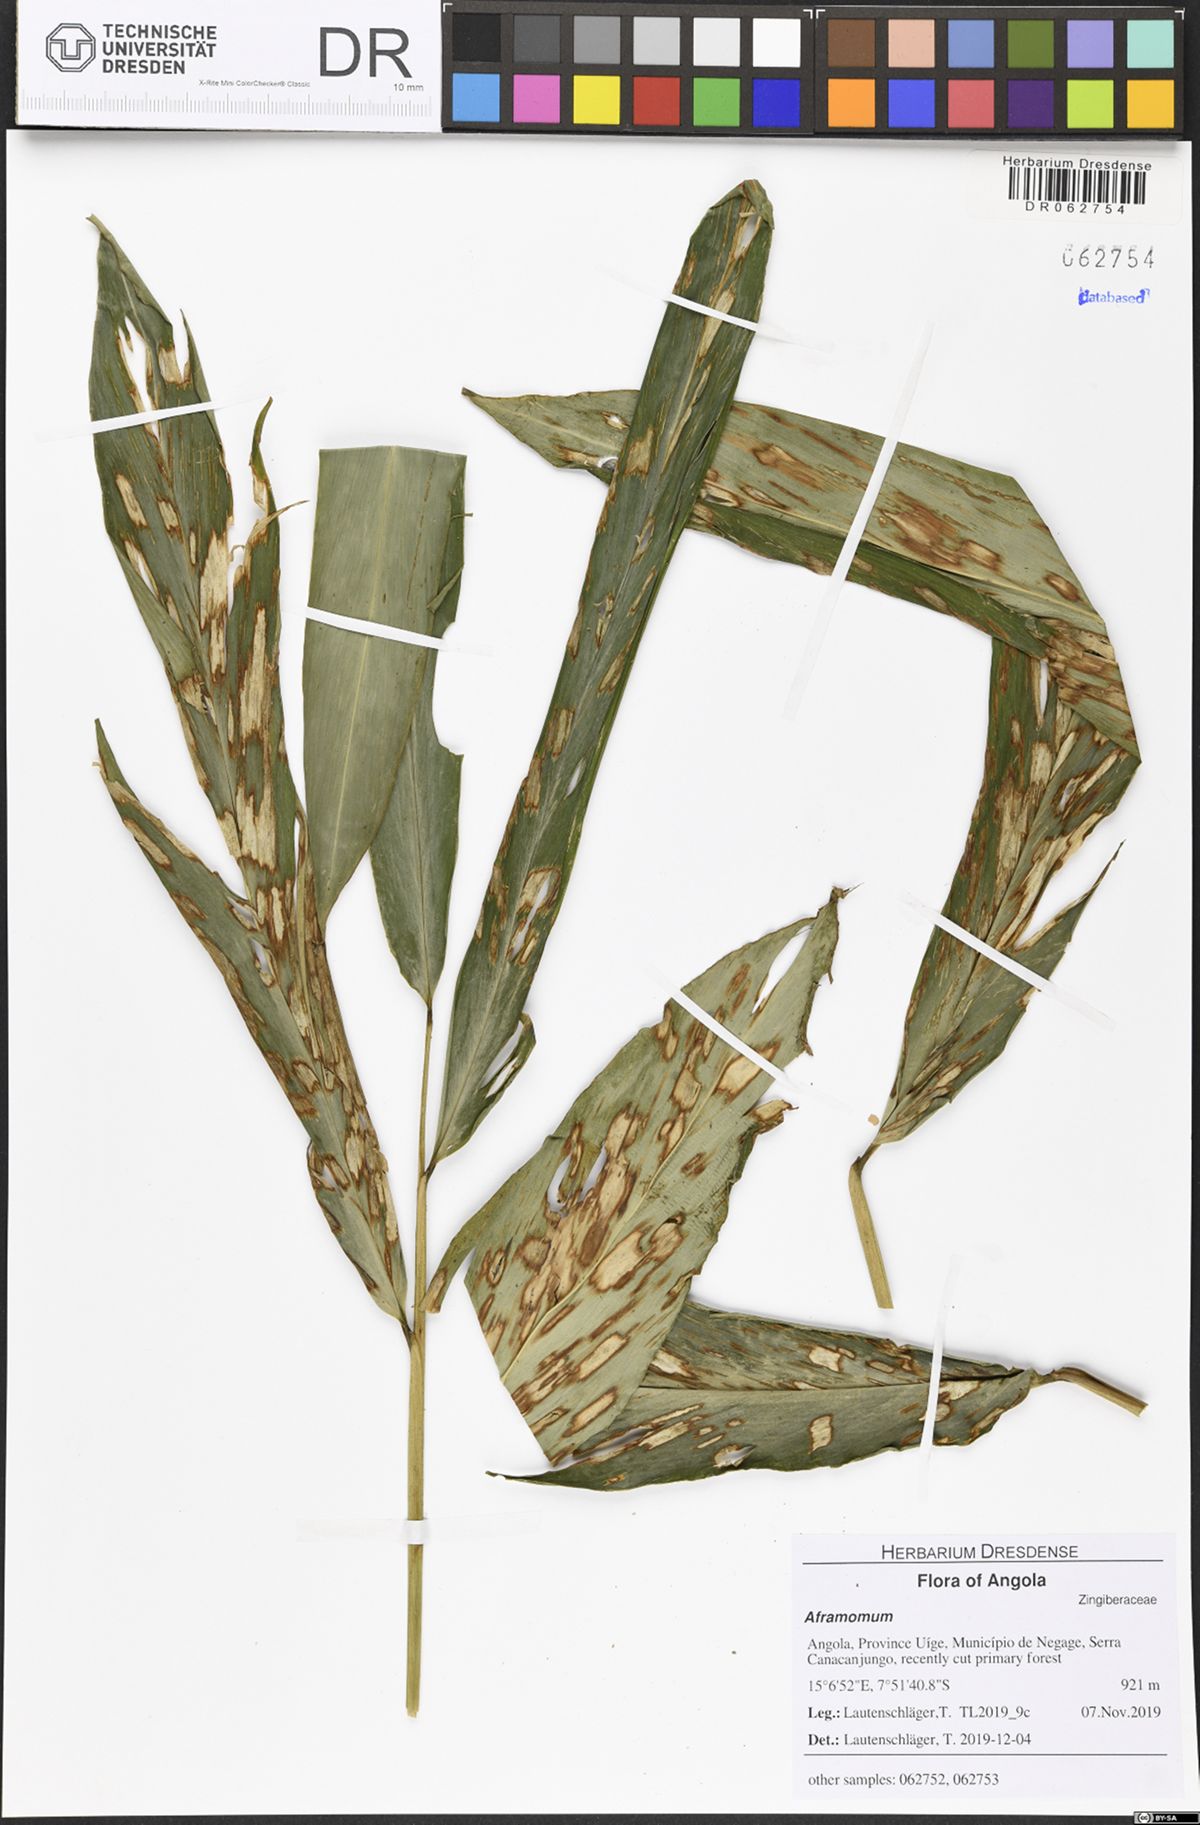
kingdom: Plantae
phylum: Tracheophyta
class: Liliopsida
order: Zingiberales
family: Zingiberaceae
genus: Aframomum
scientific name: Aframomum giganteum
